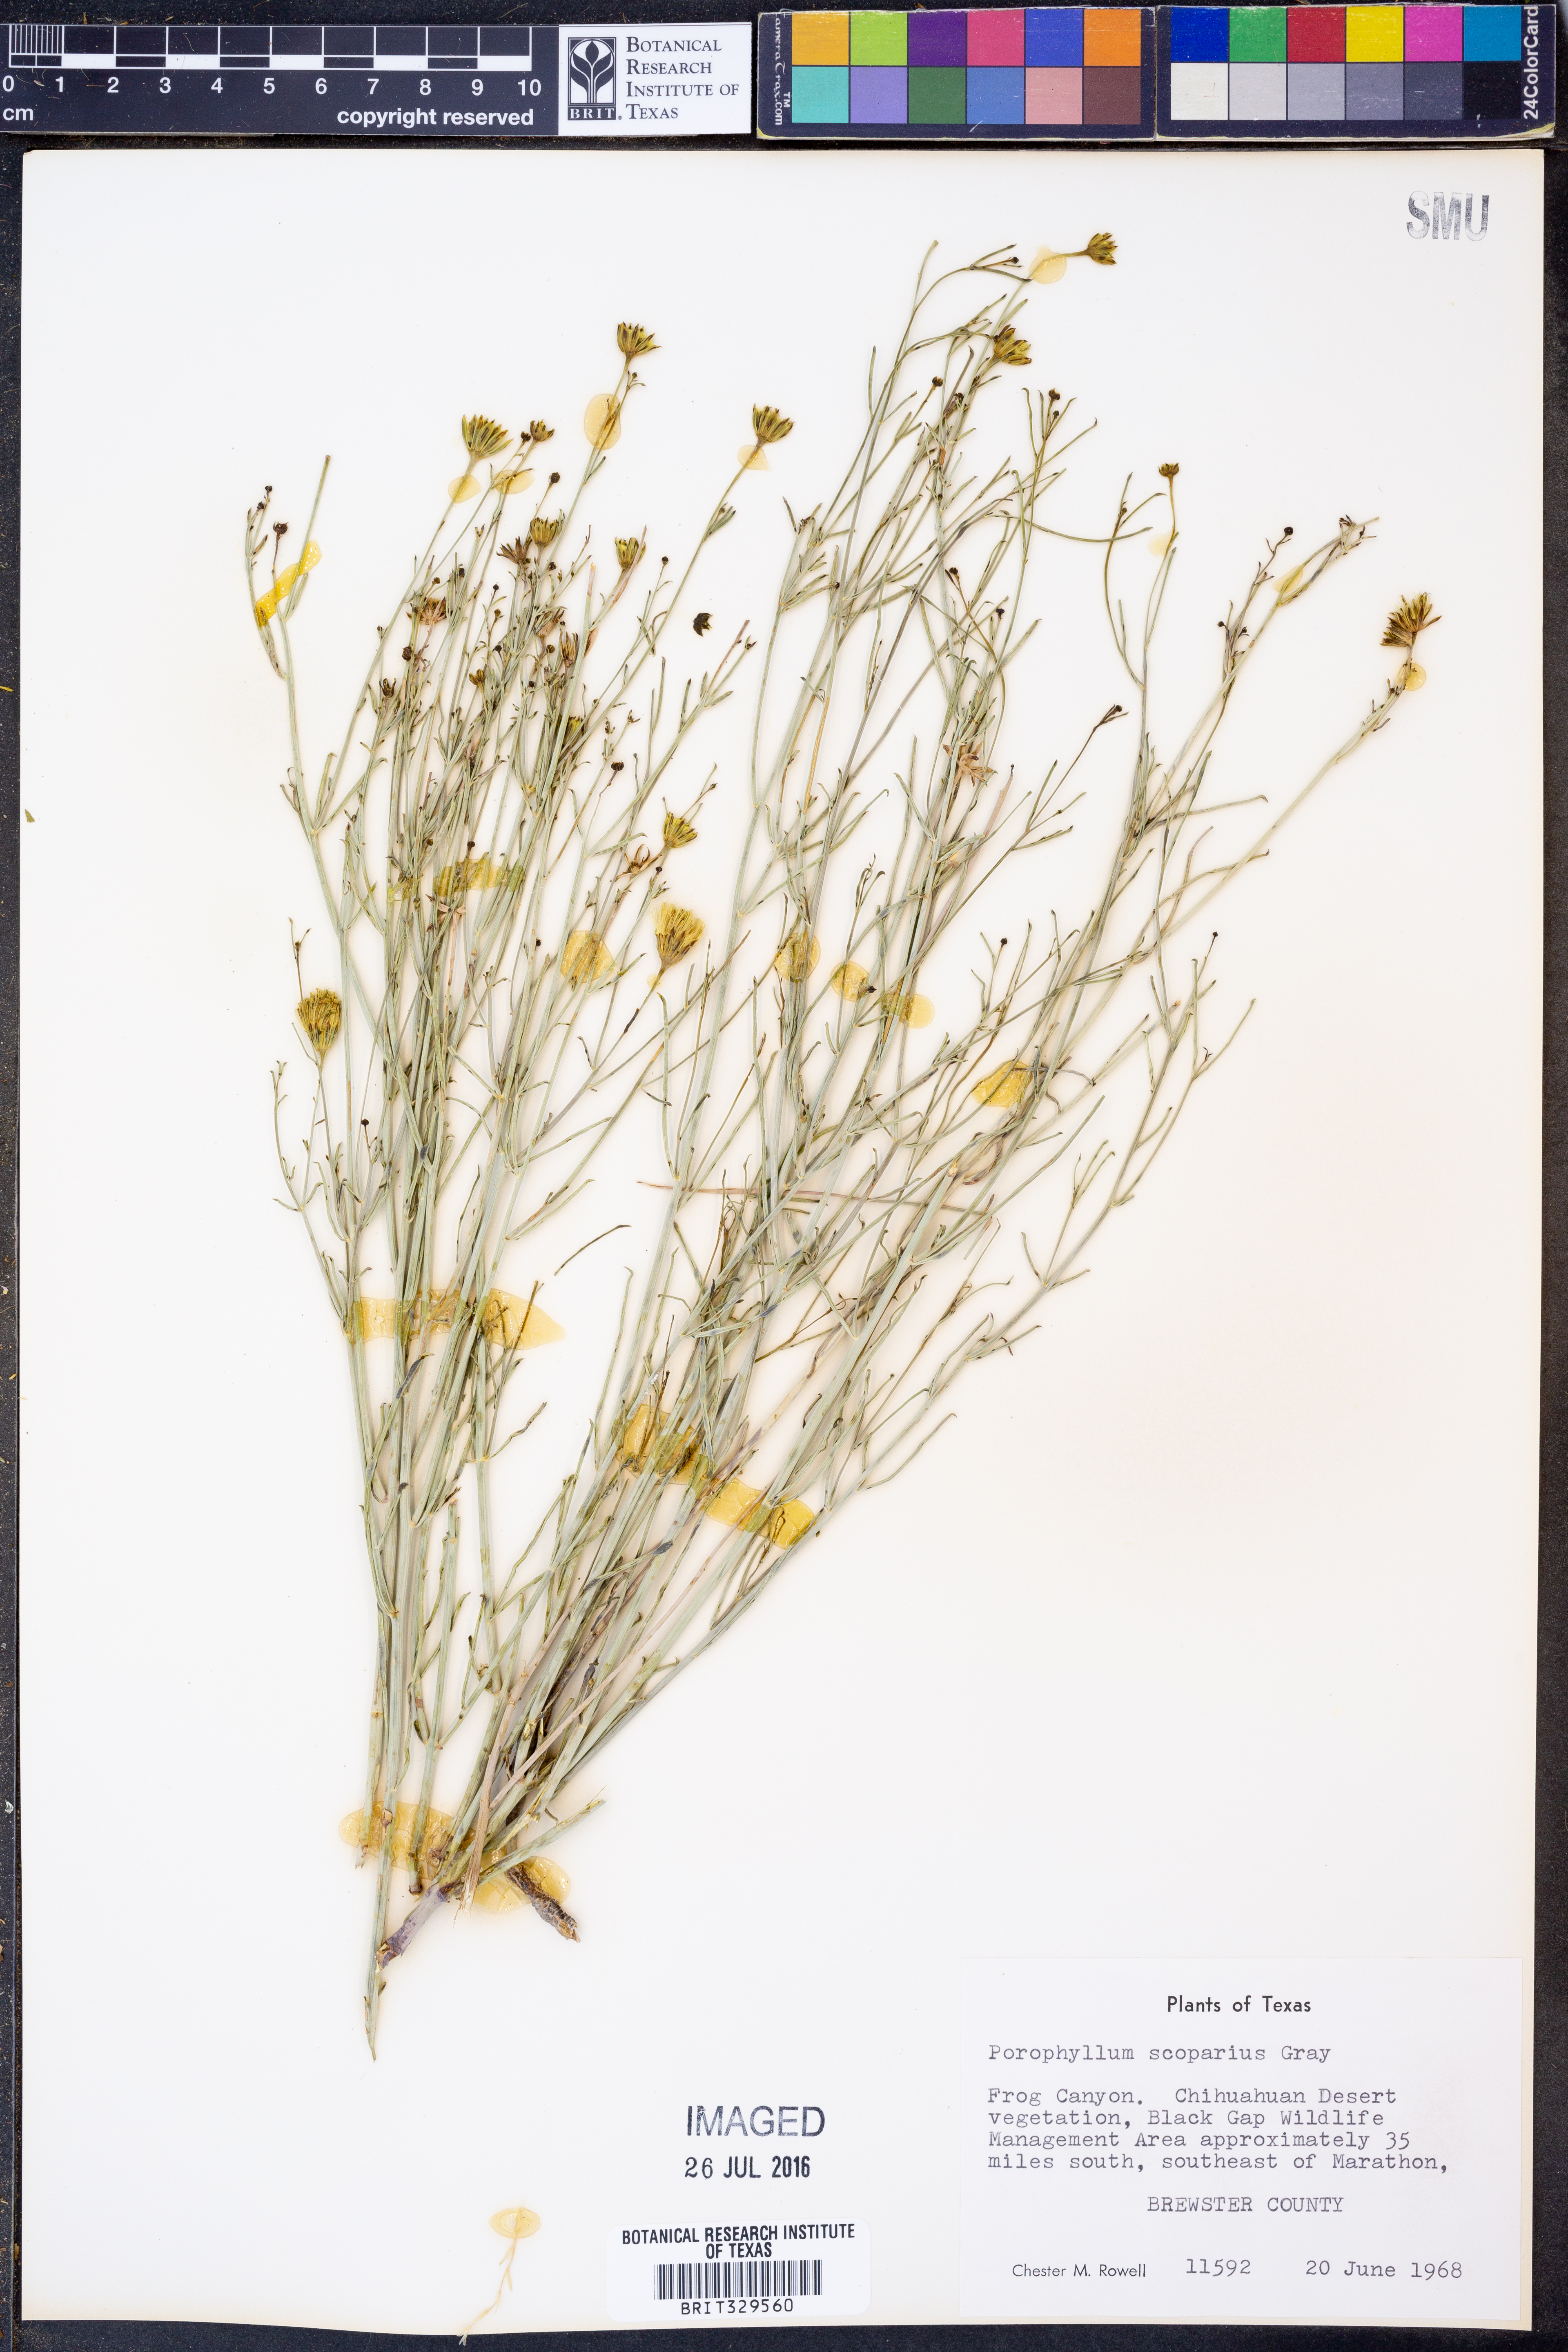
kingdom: Plantae
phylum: Tracheophyta
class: Magnoliopsida
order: Asterales
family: Asteraceae
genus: Porophyllum
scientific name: Porophyllum scoparium
